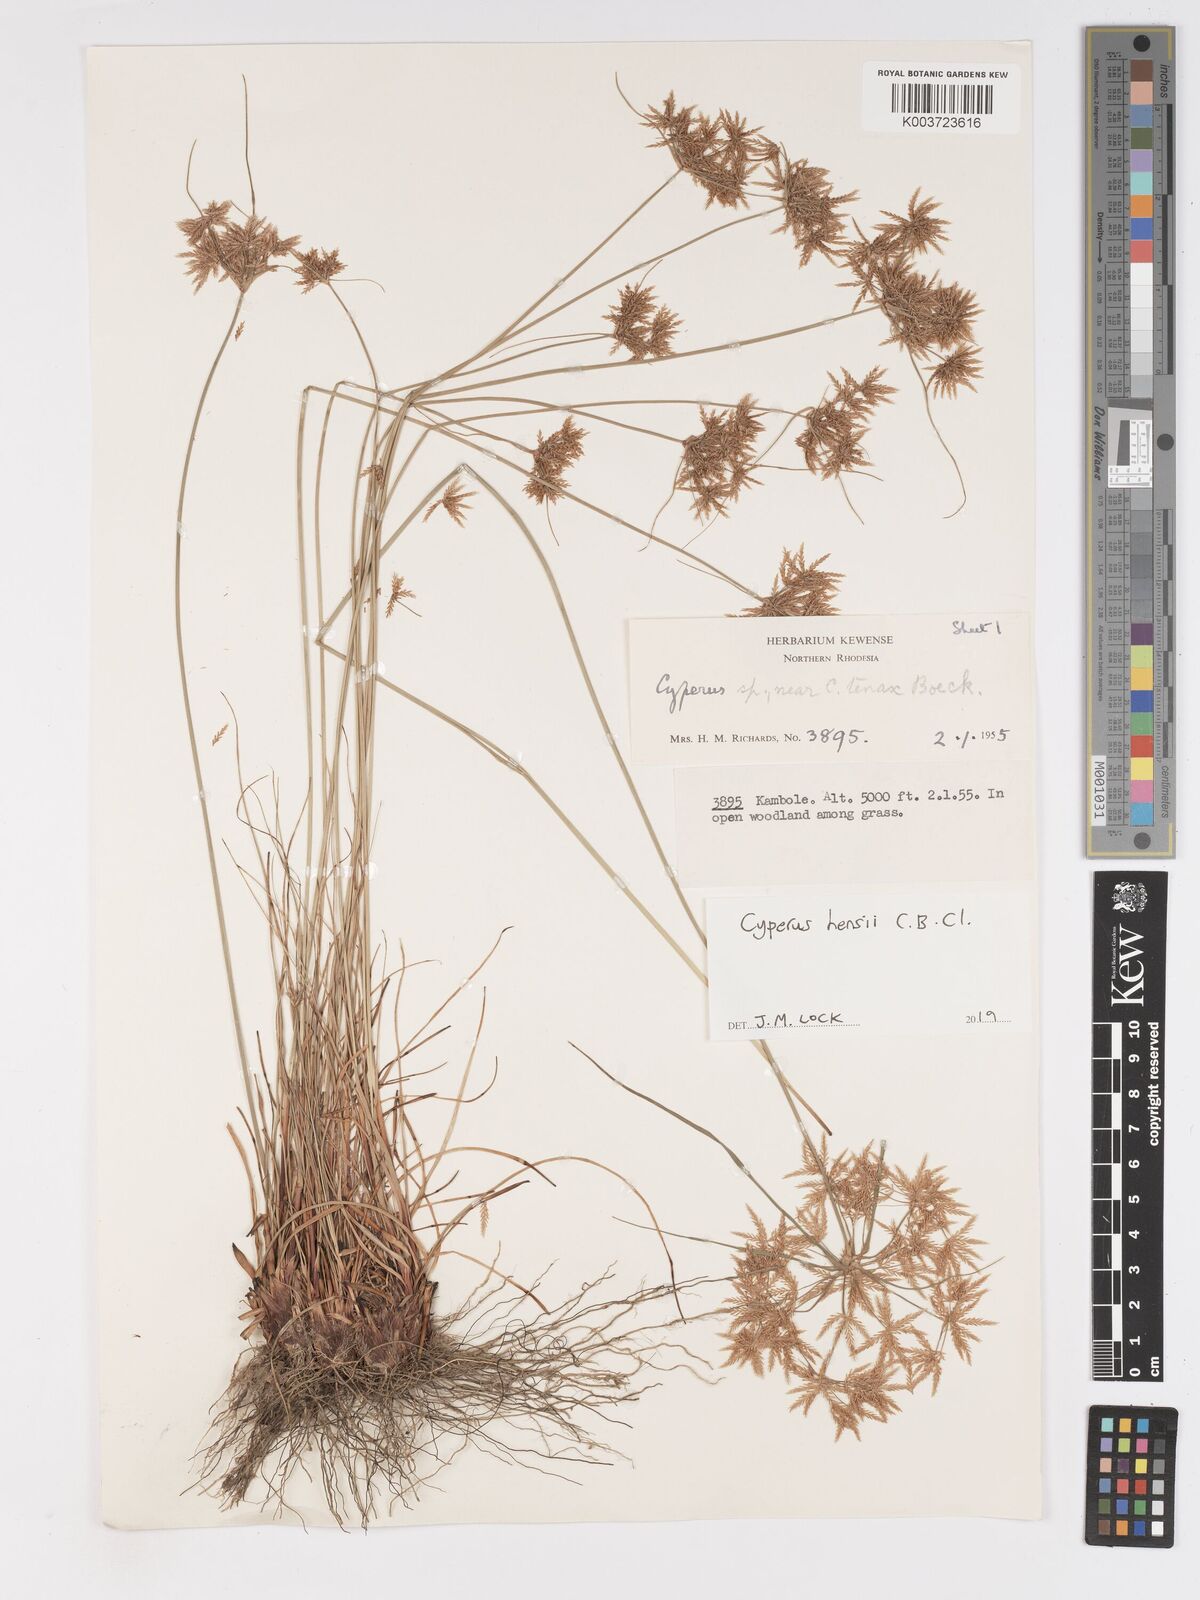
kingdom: Plantae
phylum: Tracheophyta
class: Liliopsida
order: Poales
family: Cyperaceae
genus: Cyperus
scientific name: Cyperus hensii
